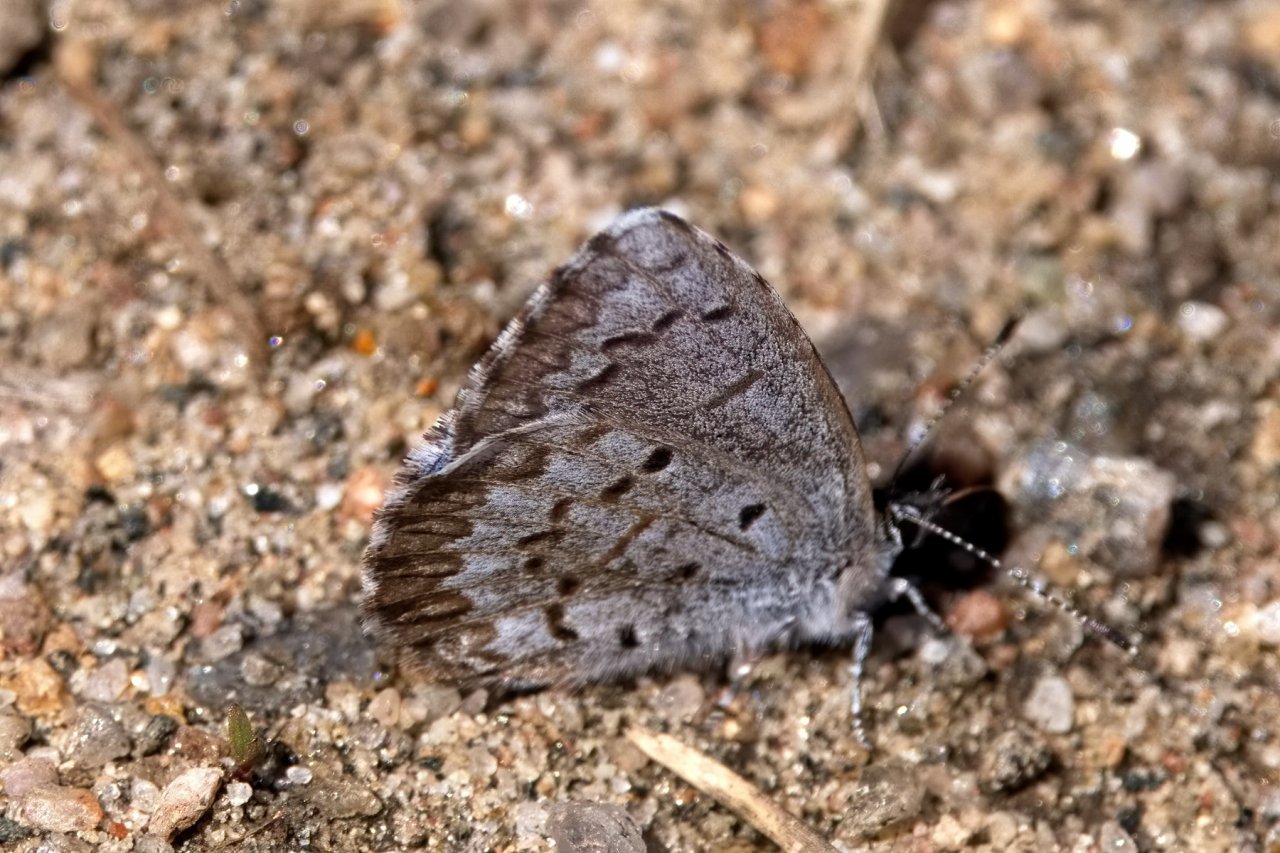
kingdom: Animalia
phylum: Arthropoda
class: Insecta
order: Lepidoptera
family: Lycaenidae
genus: Celastrina
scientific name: Celastrina lucia
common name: Northern Spring Azure
